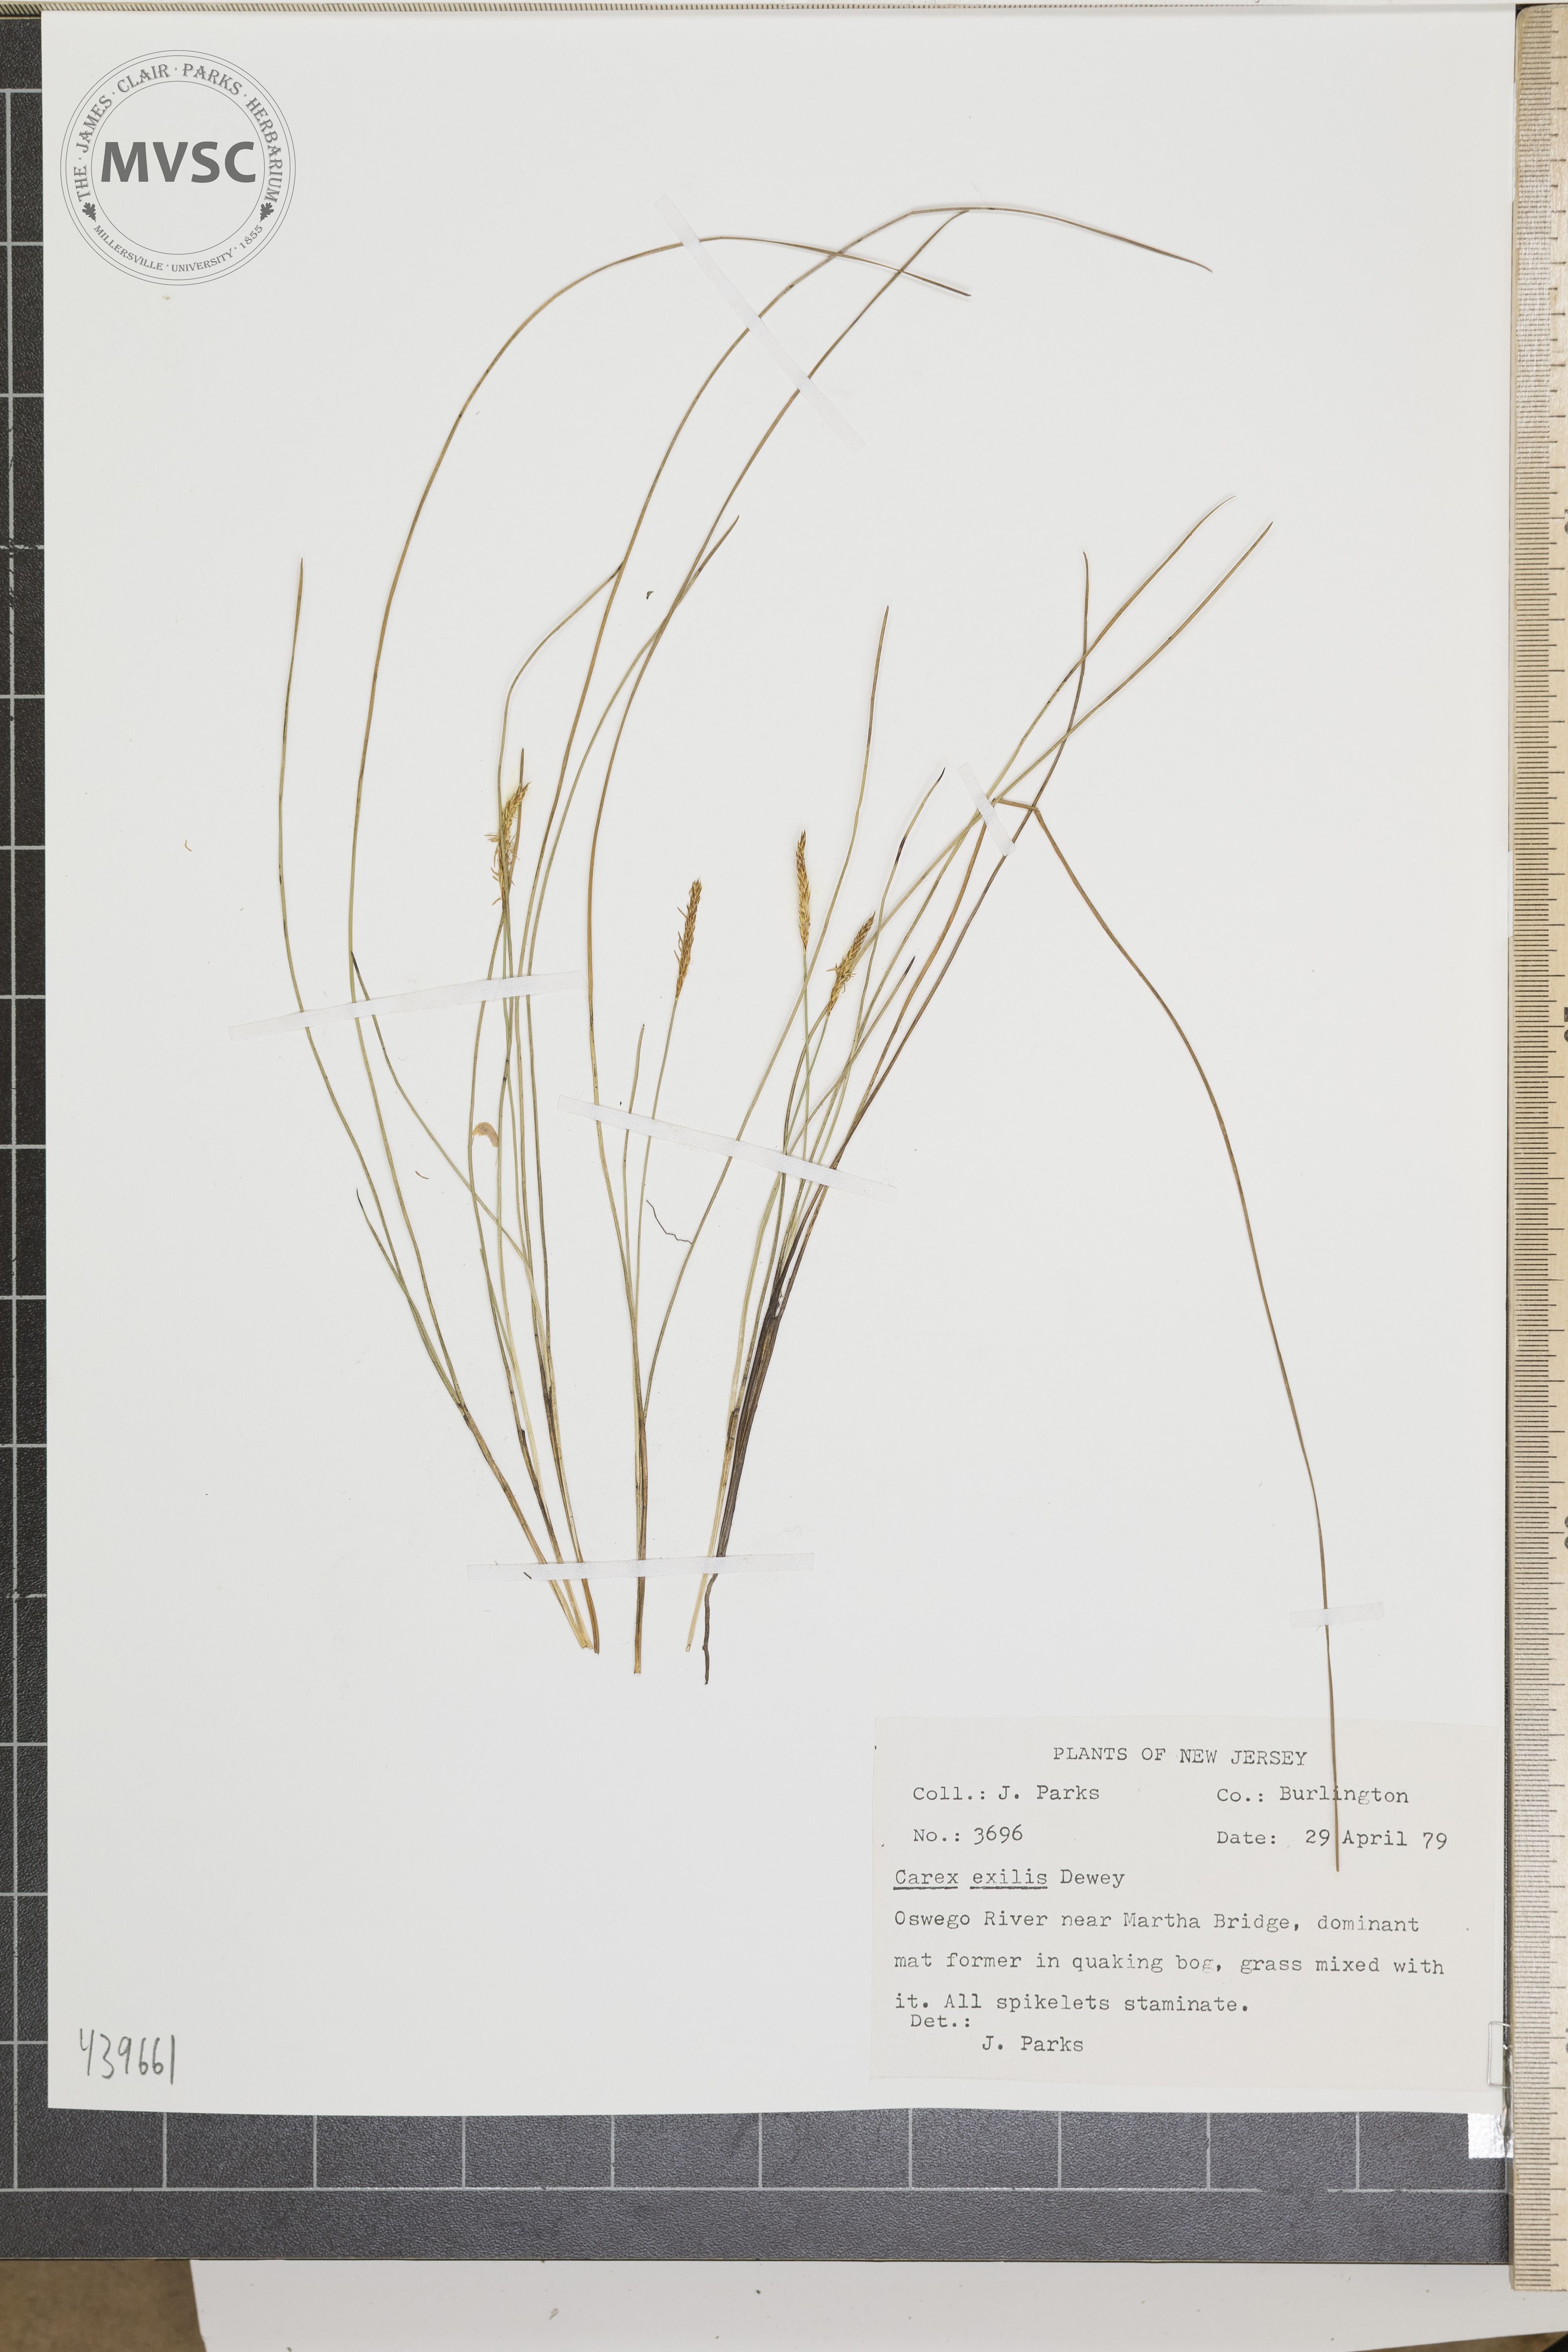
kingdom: Plantae
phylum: Tracheophyta
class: Liliopsida
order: Poales
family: Cyperaceae
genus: Carex
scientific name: Carex exilis
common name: Coastal sedge
